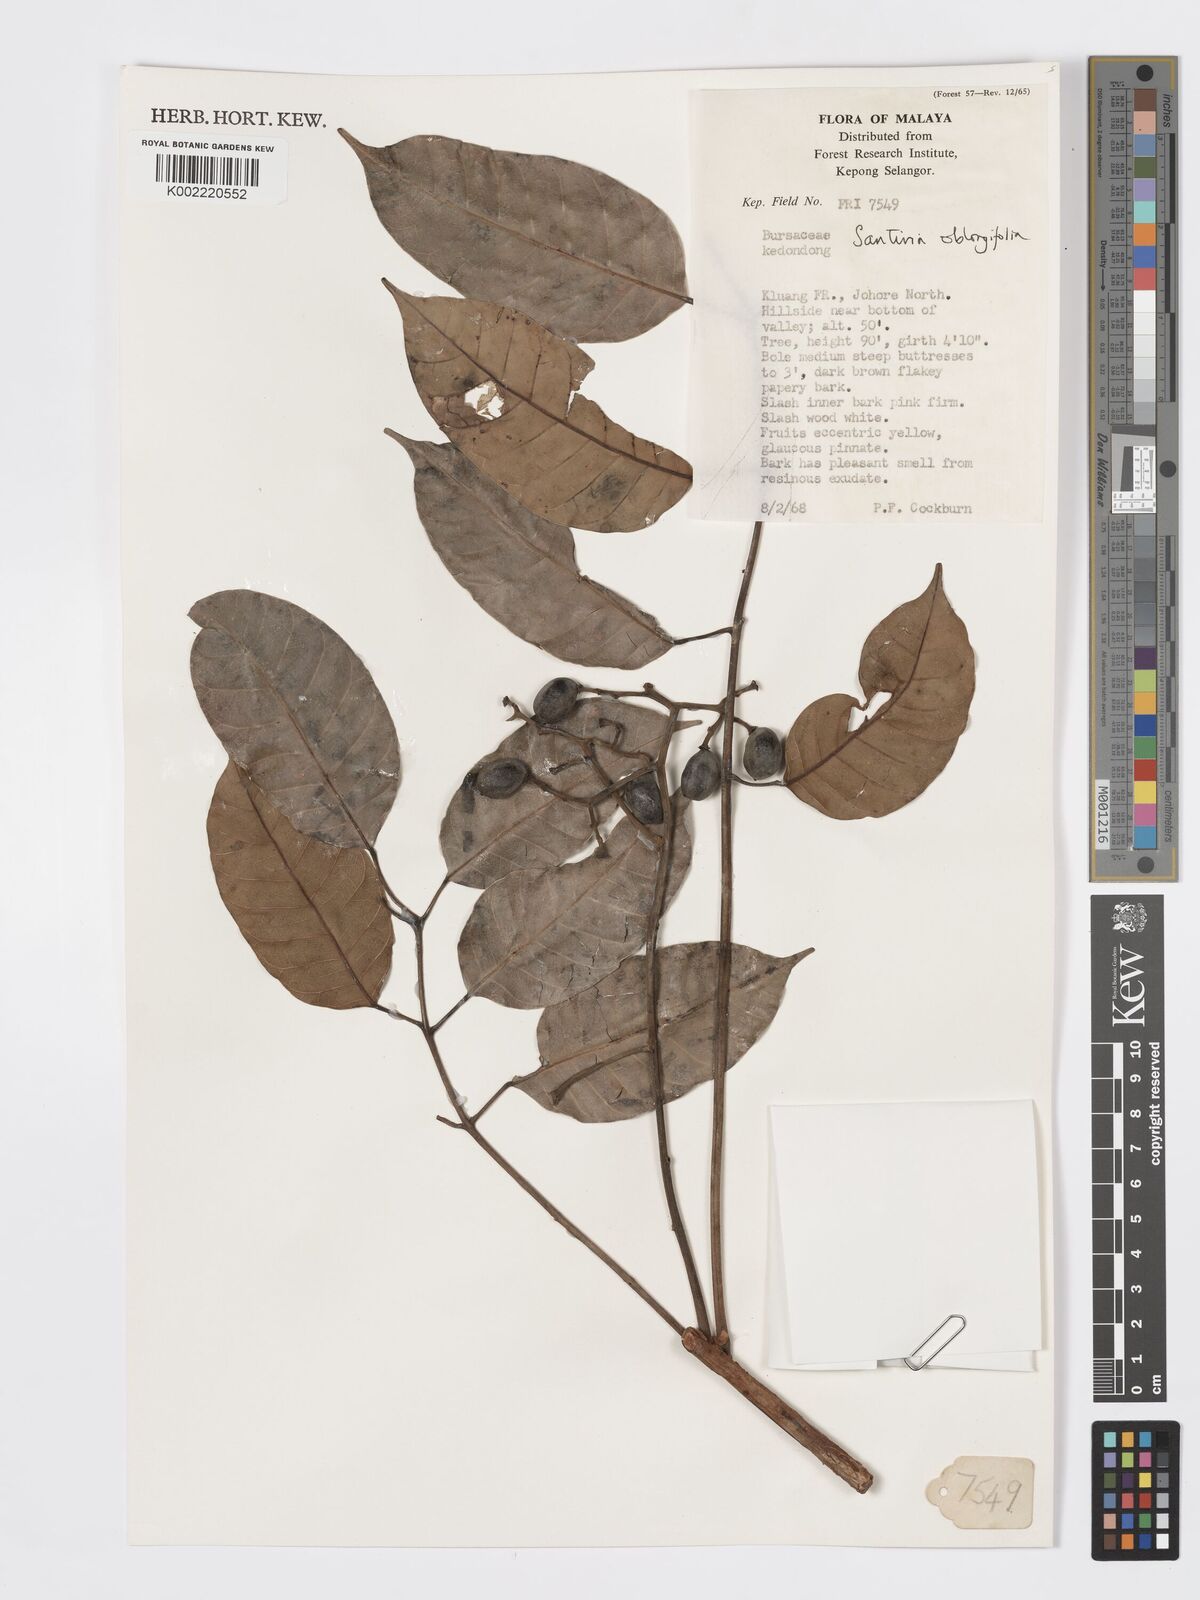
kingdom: Plantae
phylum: Tracheophyta
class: Magnoliopsida
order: Sapindales
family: Burseraceae
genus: Santiria
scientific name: Santiria oblongifolia
